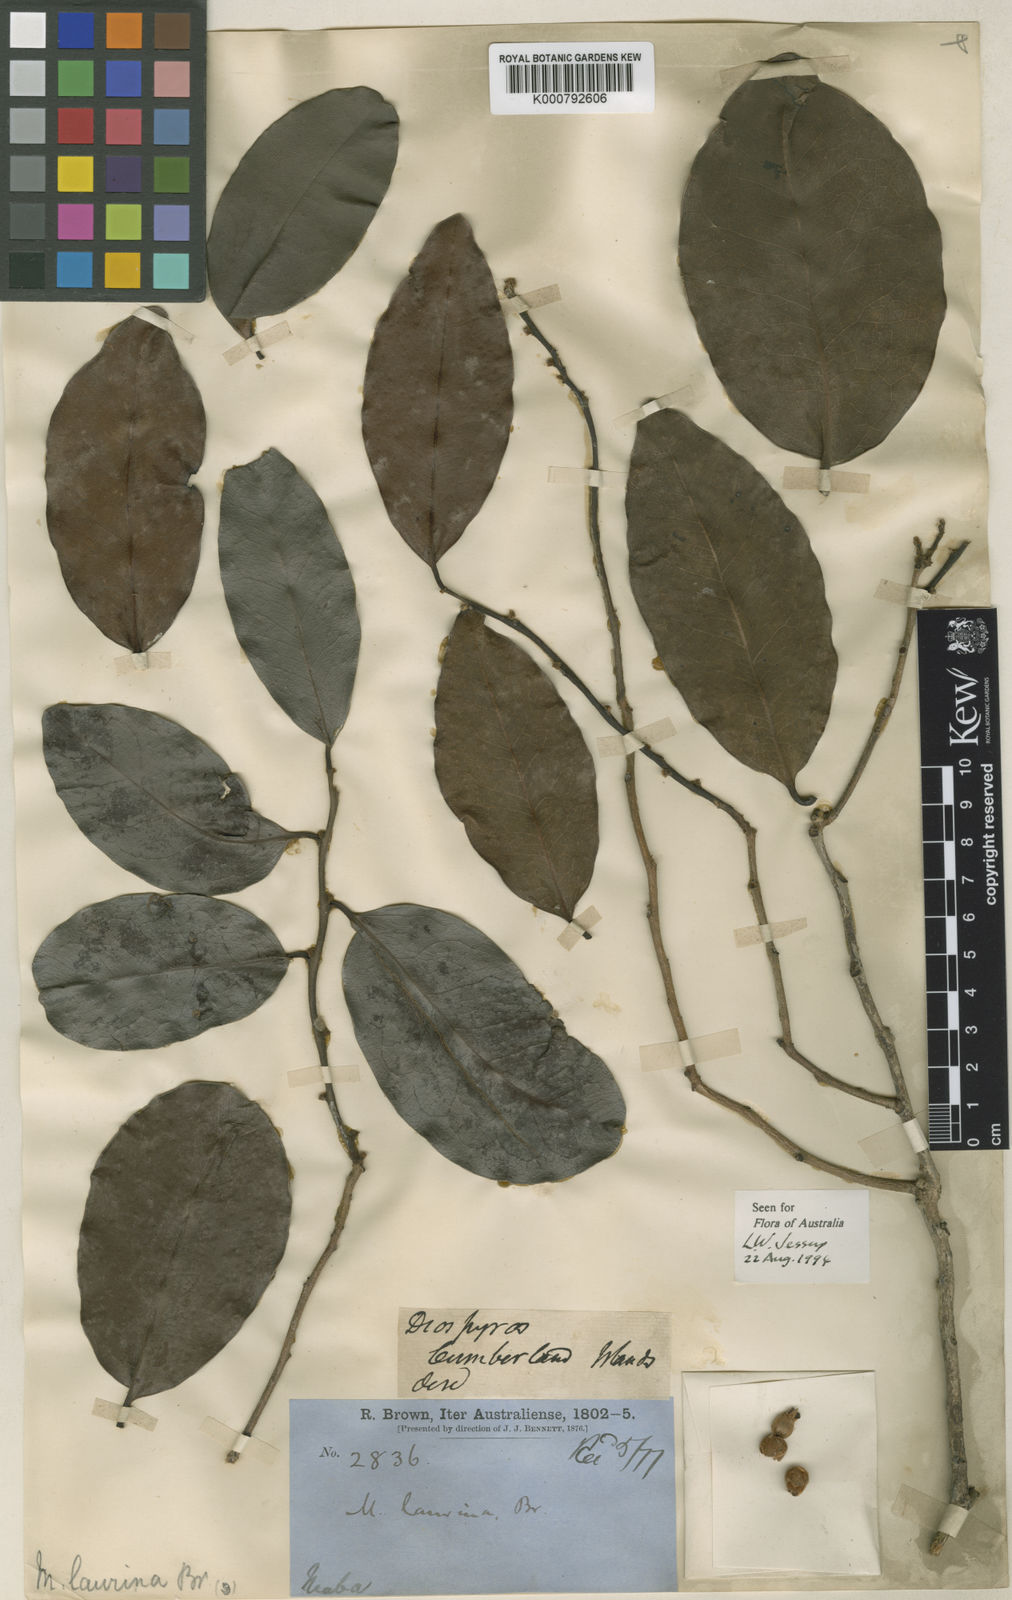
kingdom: Plantae
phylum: Tracheophyta
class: Magnoliopsida
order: Ericales
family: Ebenaceae
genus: Diospyros
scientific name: Diospyros labillardierei
